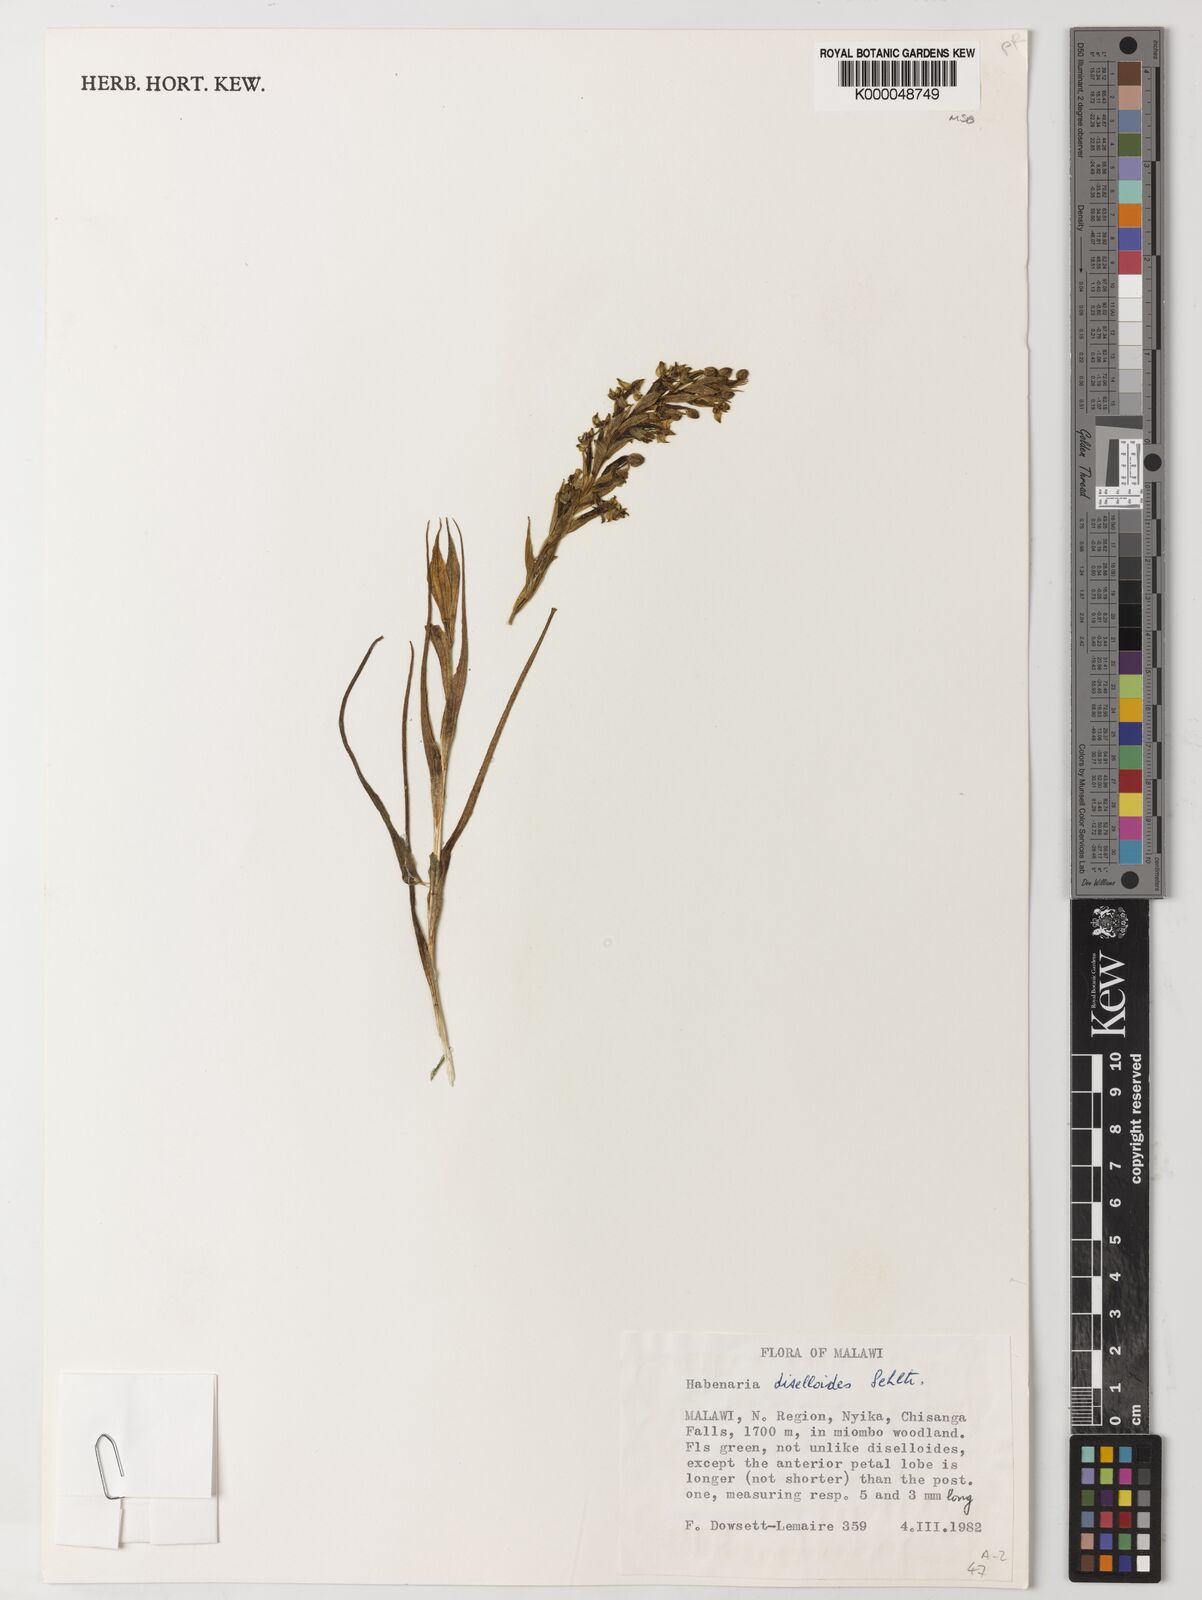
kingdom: Plantae
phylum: Tracheophyta
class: Liliopsida
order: Asparagales
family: Orchidaceae
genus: Habenaria
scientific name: Habenaria diselloides
